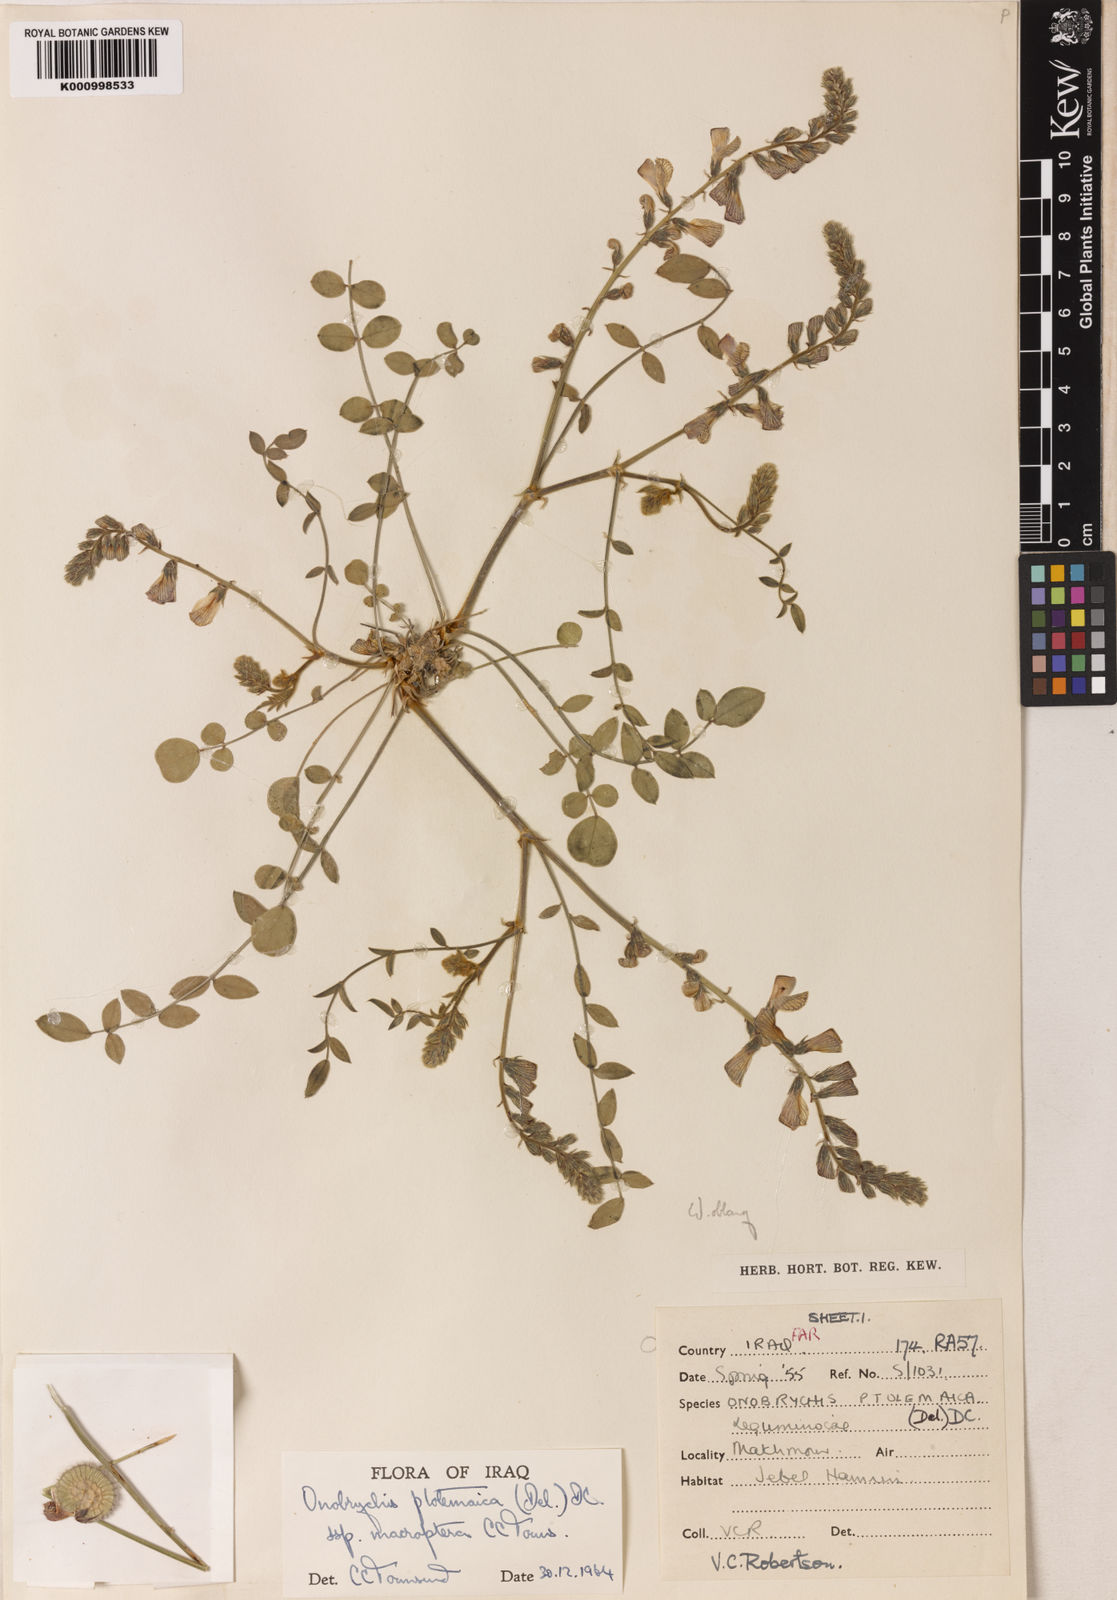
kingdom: Plantae
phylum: Tracheophyta
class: Magnoliopsida
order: Fabales
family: Fabaceae
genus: Onobrychis
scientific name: Onobrychis ptolemaica
